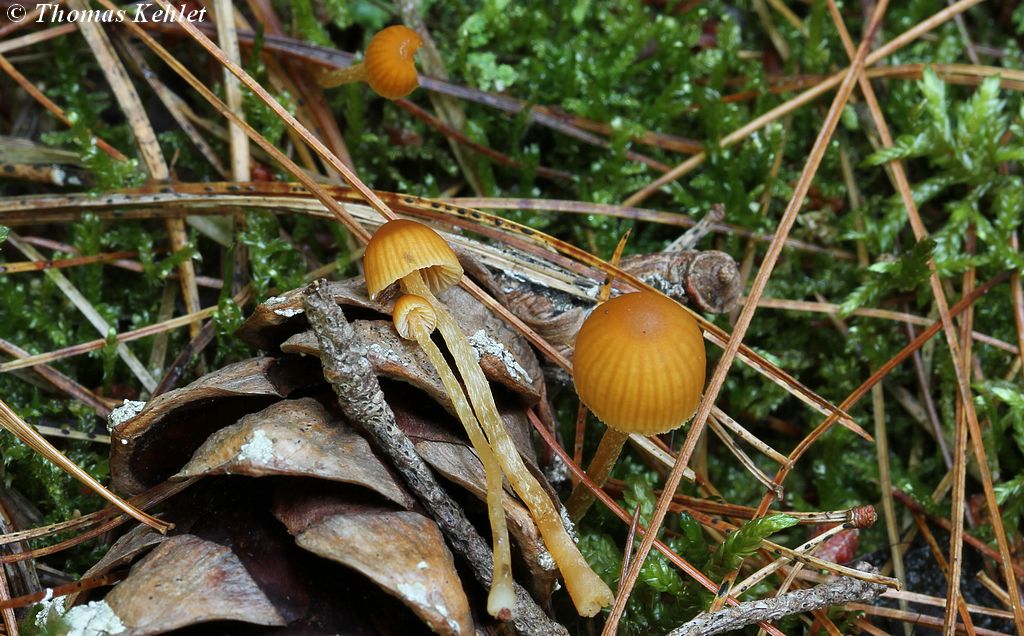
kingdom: Fungi
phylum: Basidiomycota
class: Agaricomycetes
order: Agaricales
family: Hymenogastraceae
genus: Galerina
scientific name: Galerina calyptrata
